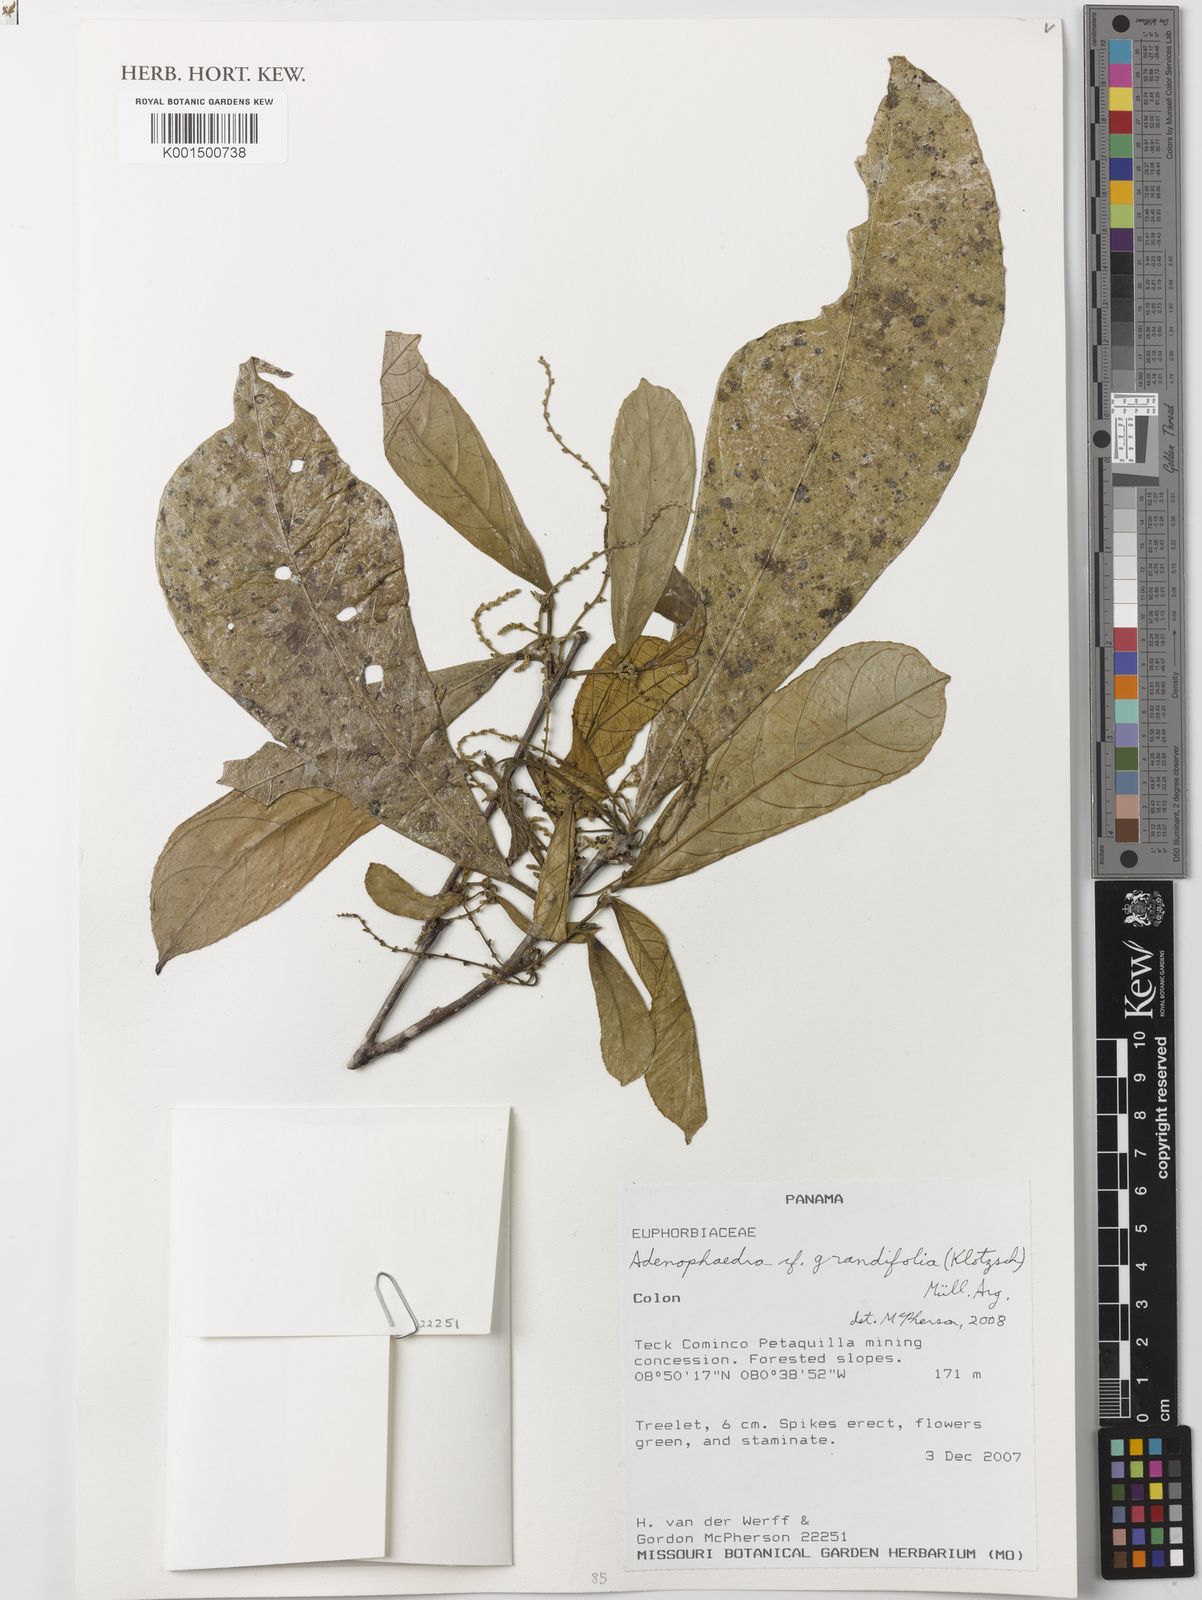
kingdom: Plantae
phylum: Tracheophyta
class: Magnoliopsida
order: Malpighiales
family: Euphorbiaceae
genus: Adenophaedra
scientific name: Adenophaedra grandifolia
